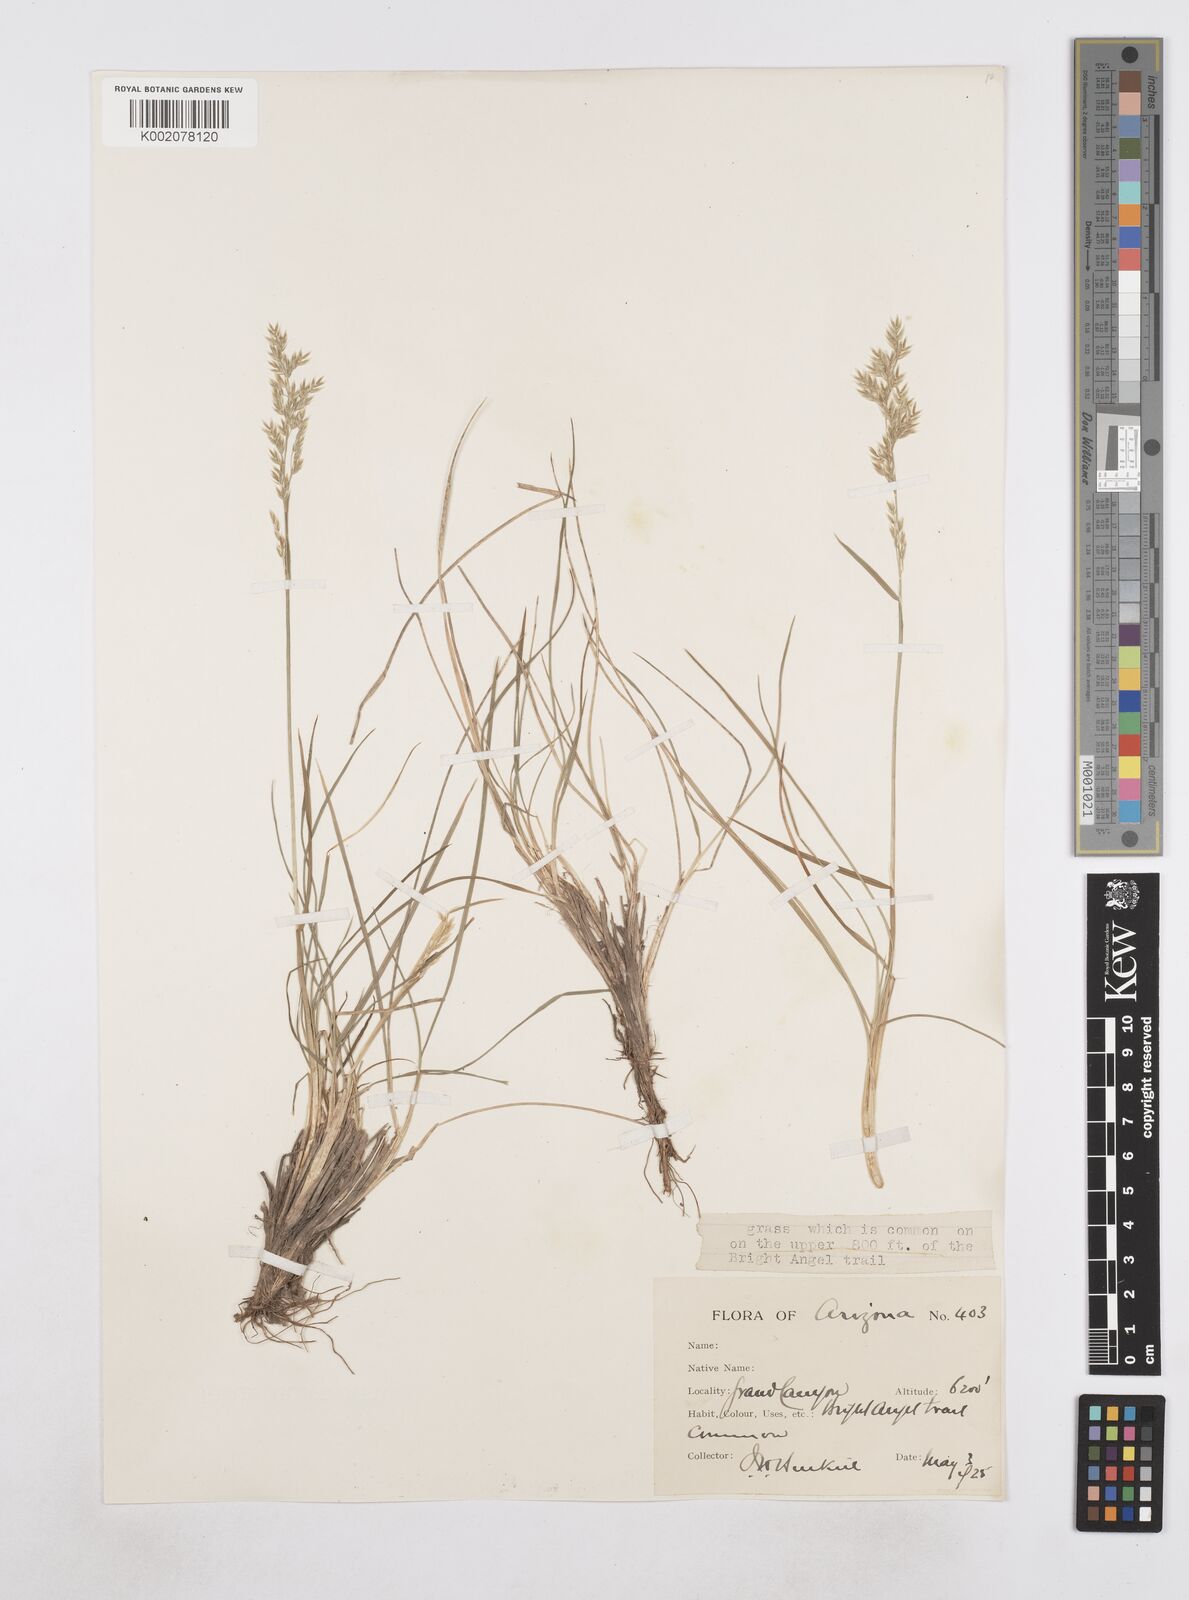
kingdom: Plantae
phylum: Tracheophyta
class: Liliopsida
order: Poales
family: Poaceae
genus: Poa
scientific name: Poa
